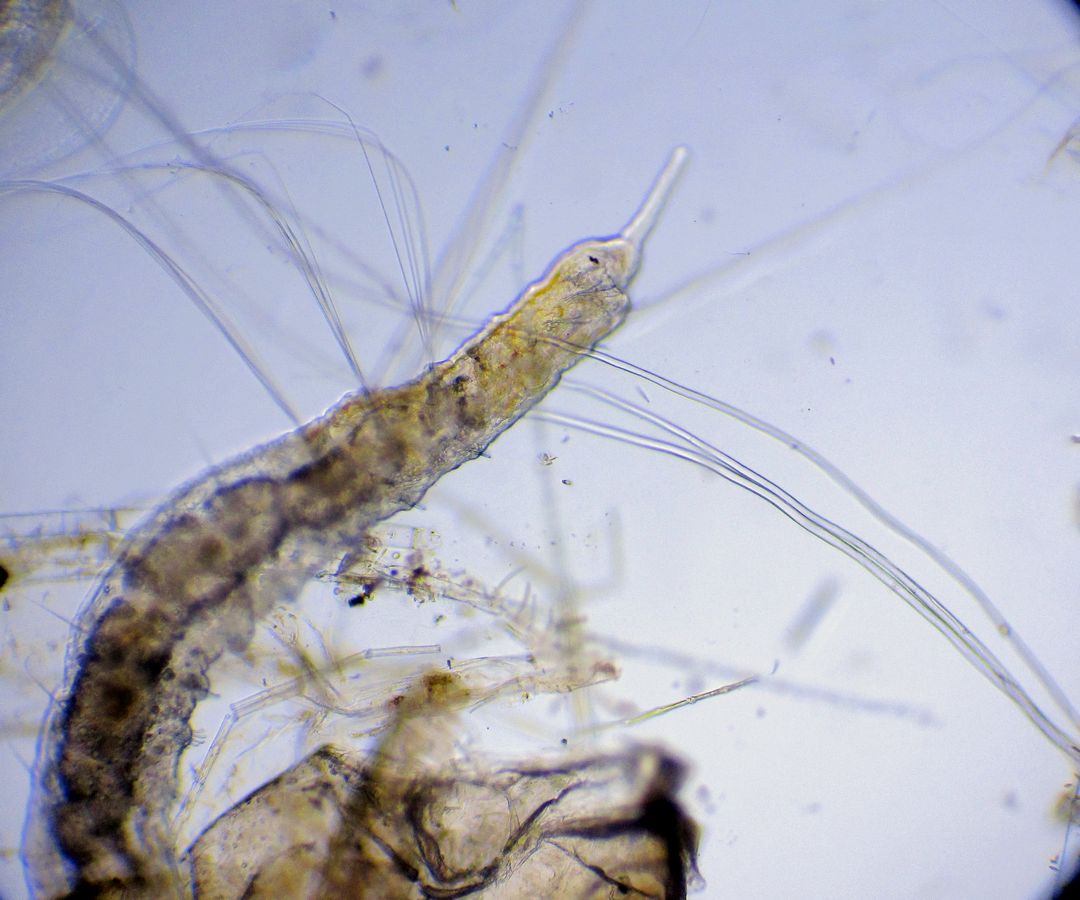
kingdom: Animalia
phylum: Annelida
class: Clitellata
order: Tubificida
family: Naididae
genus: Ripistes
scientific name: Ripistes parasita
